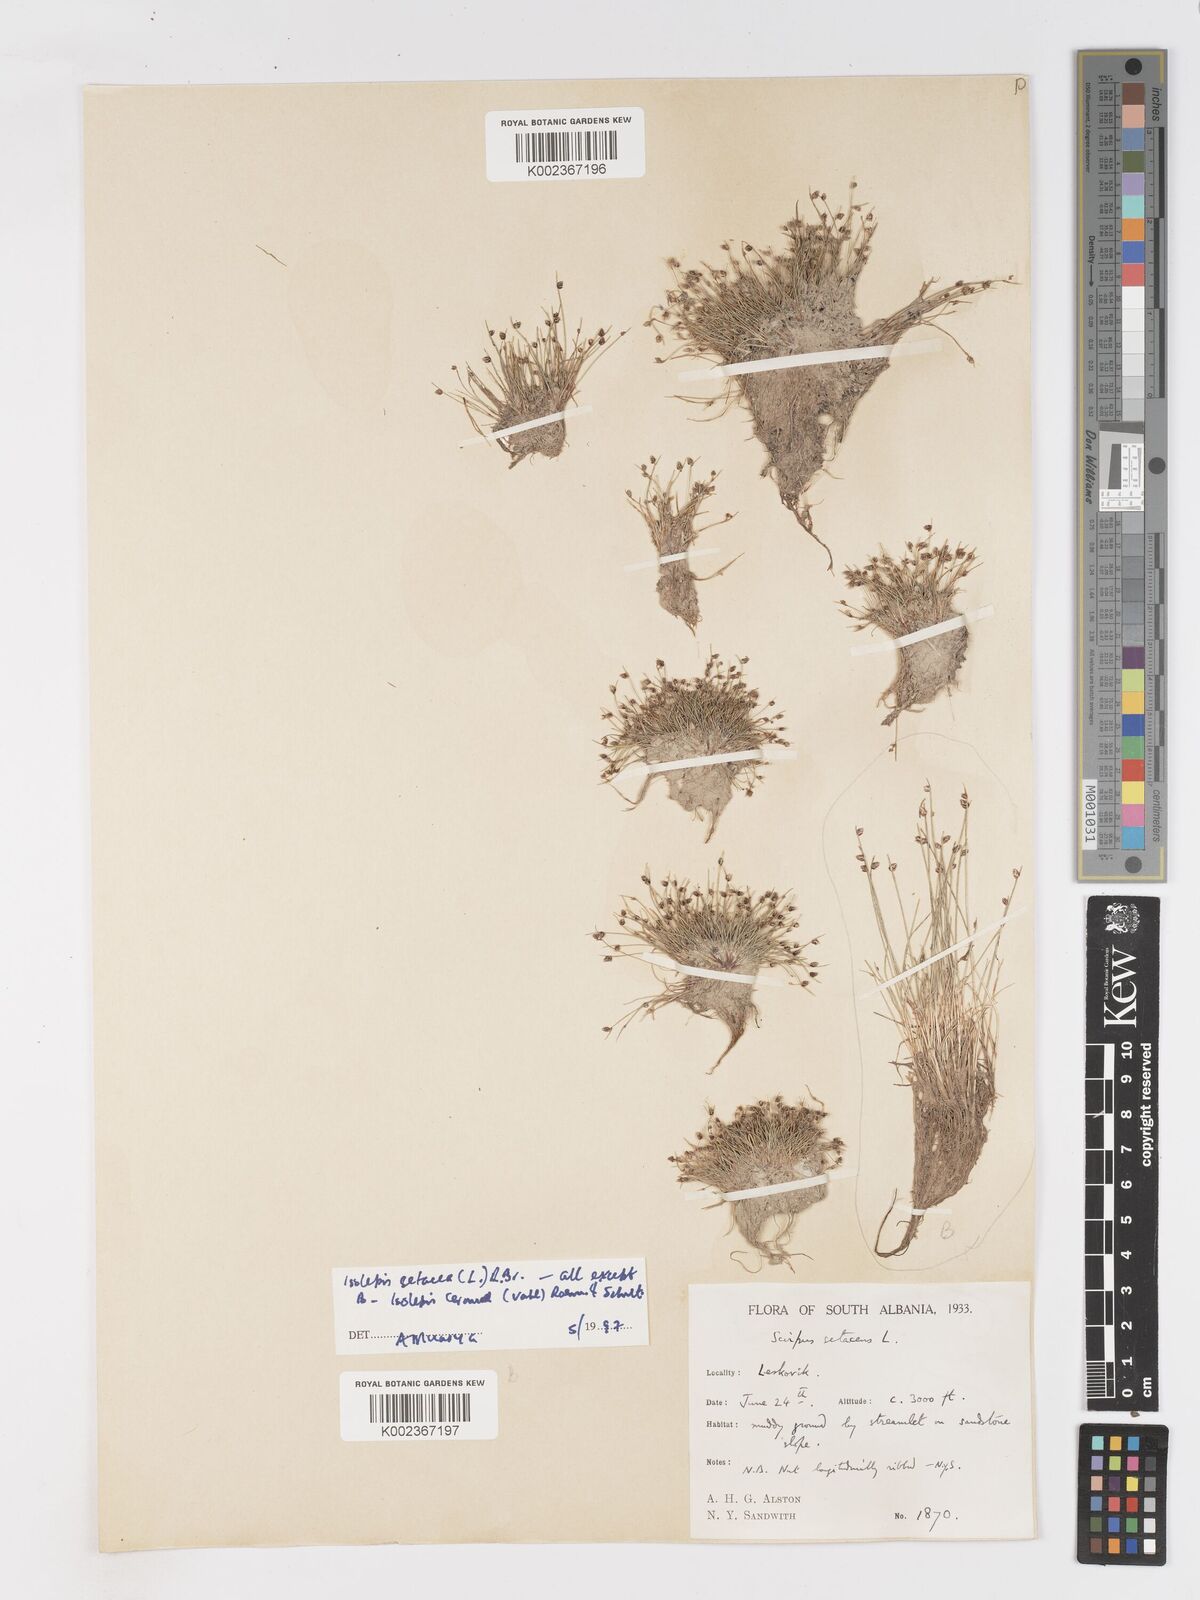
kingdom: Plantae
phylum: Tracheophyta
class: Liliopsida
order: Poales
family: Cyperaceae
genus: Isolepis
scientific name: Isolepis setacea
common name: Bristle club-rush
